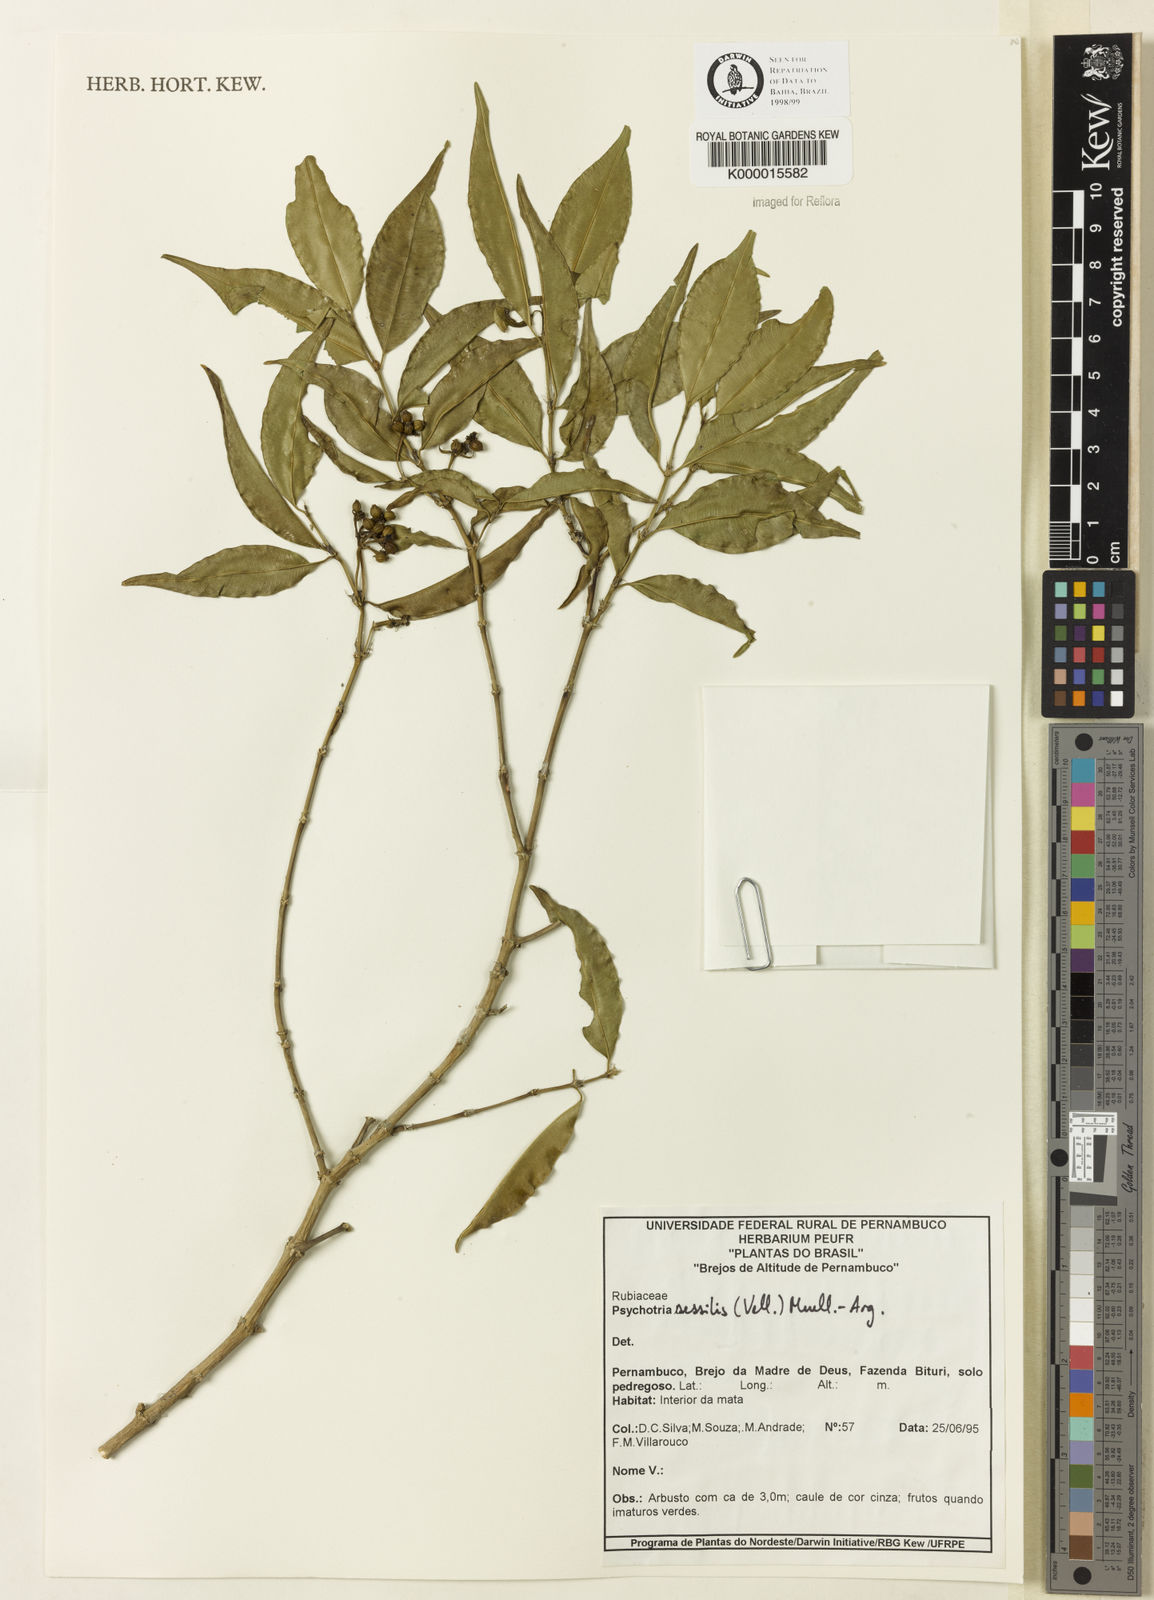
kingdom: Plantae
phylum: Tracheophyta
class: Magnoliopsida
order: Gentianales
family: Rubiaceae
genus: Psychotria
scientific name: Psychotria
